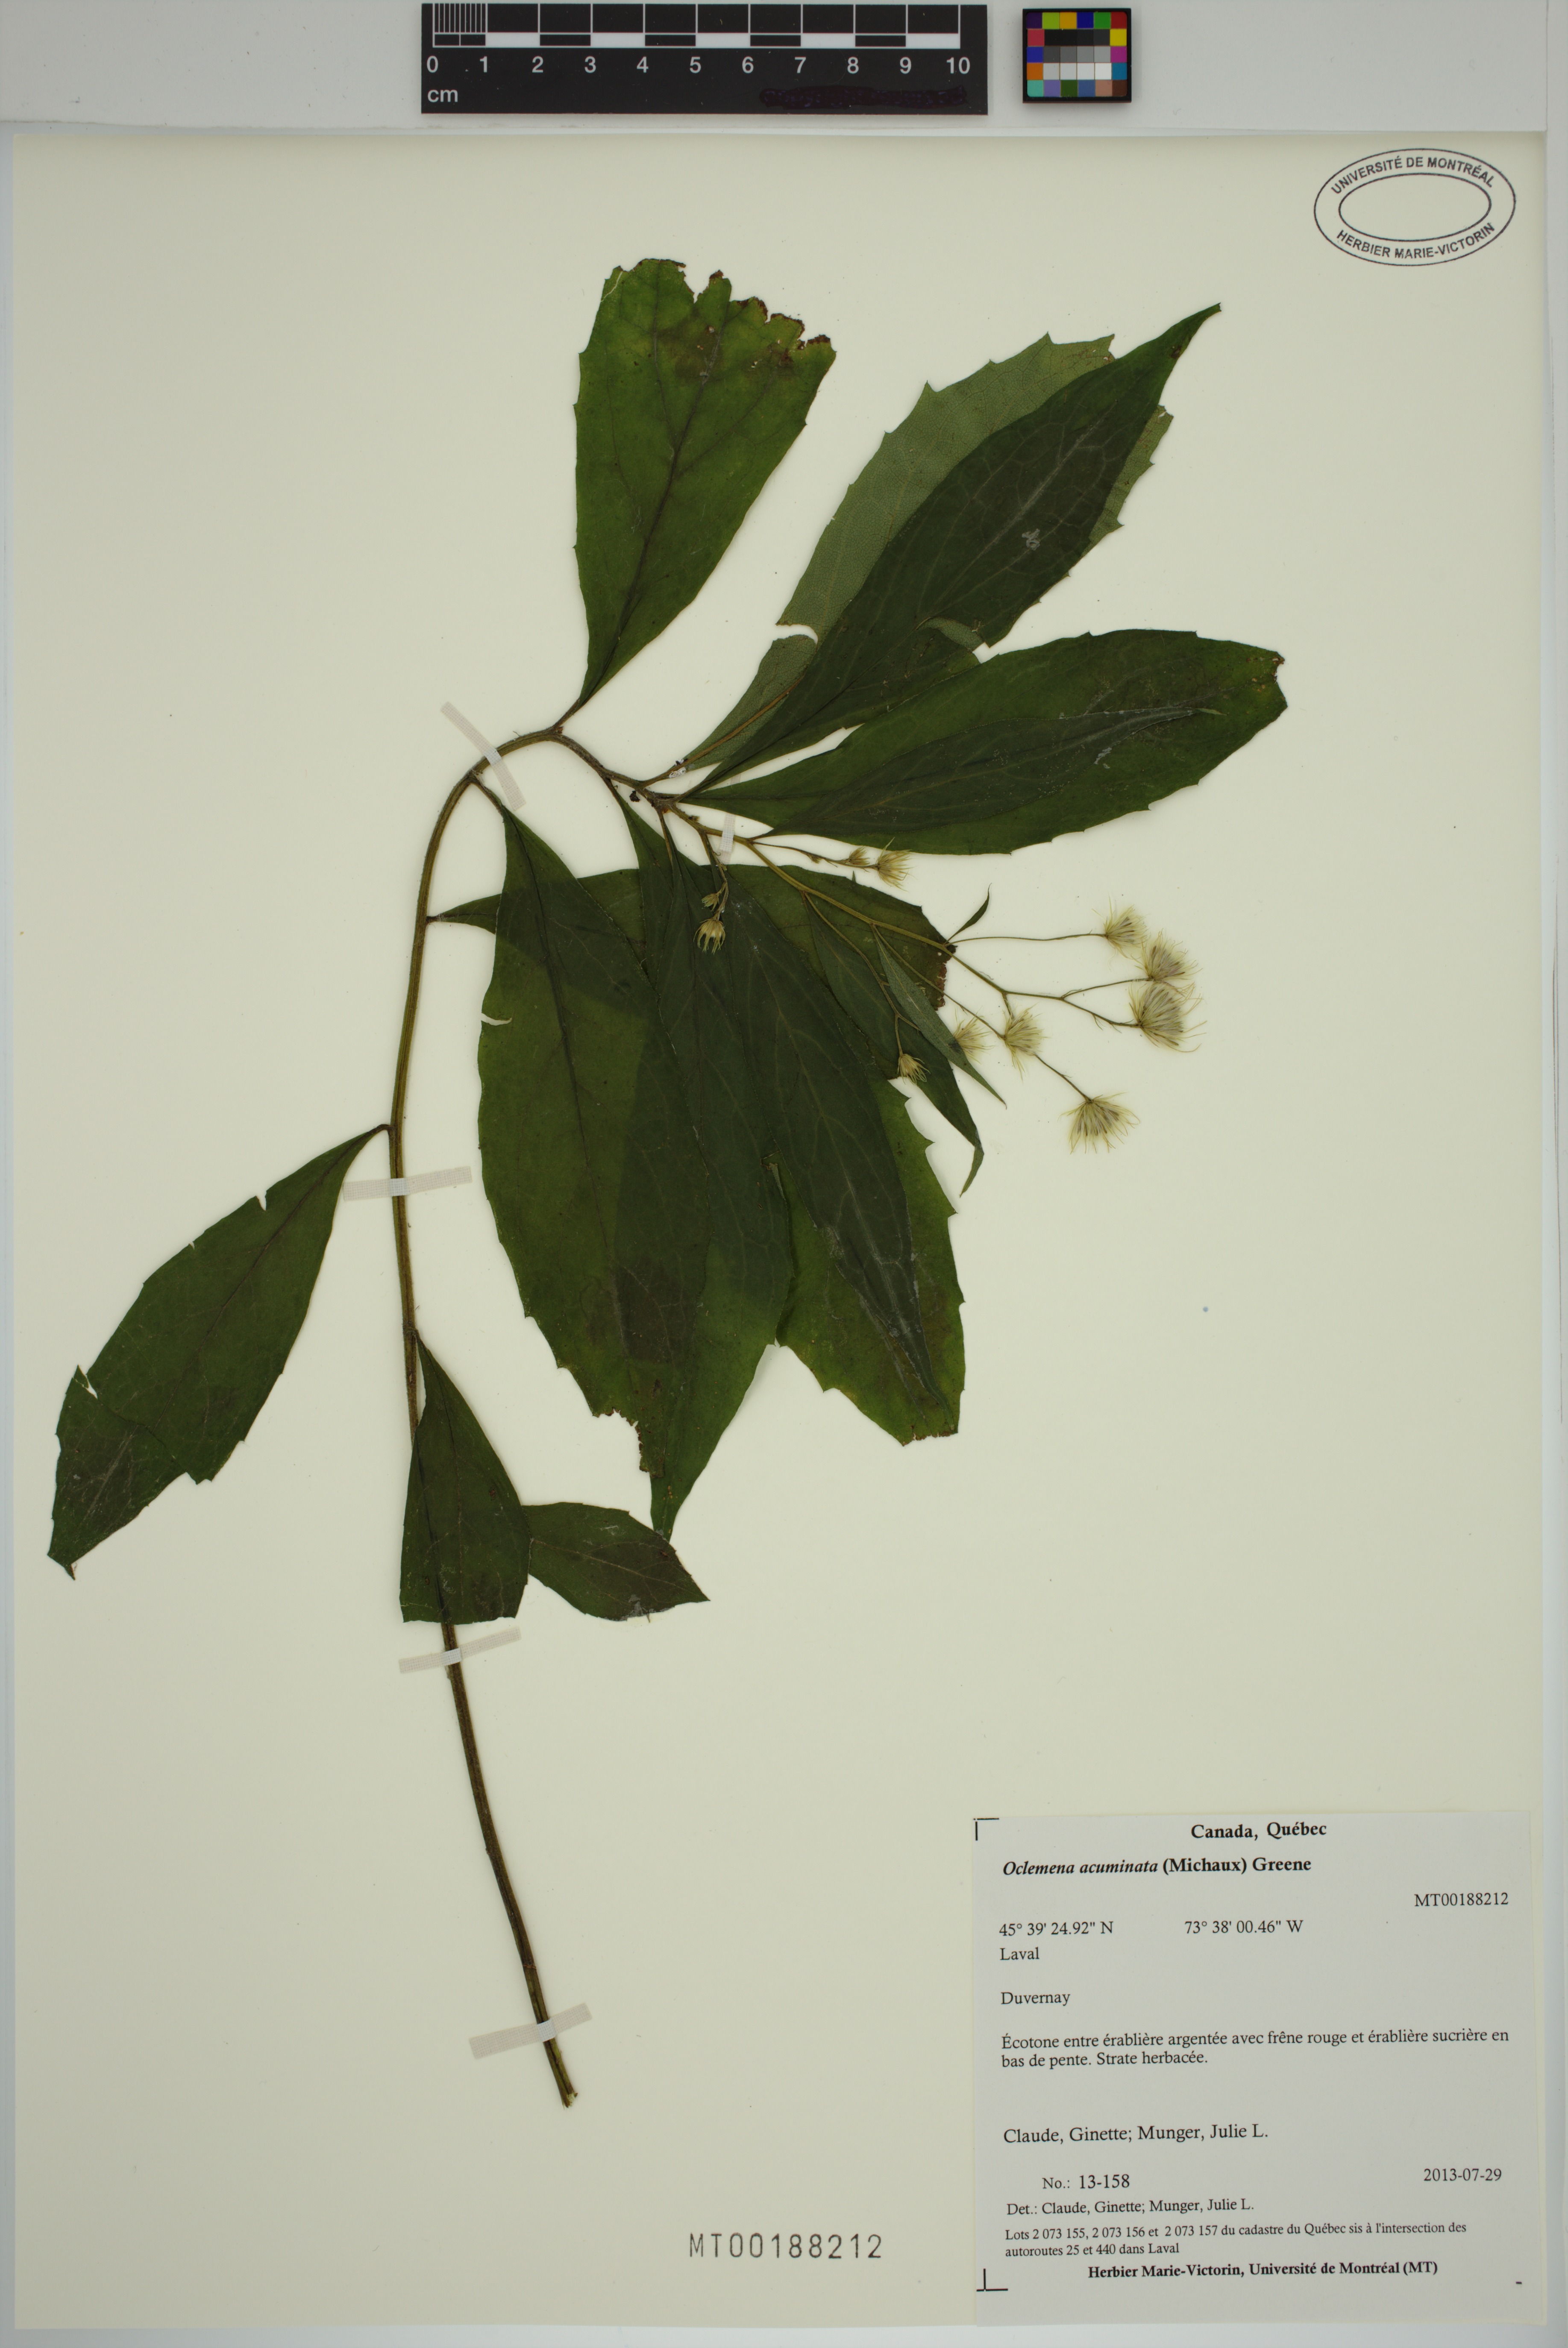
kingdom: Plantae
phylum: Tracheophyta
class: Magnoliopsida
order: Asterales
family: Asteraceae
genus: Oclemena
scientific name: Oclemena acuminata
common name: Mountain aster
